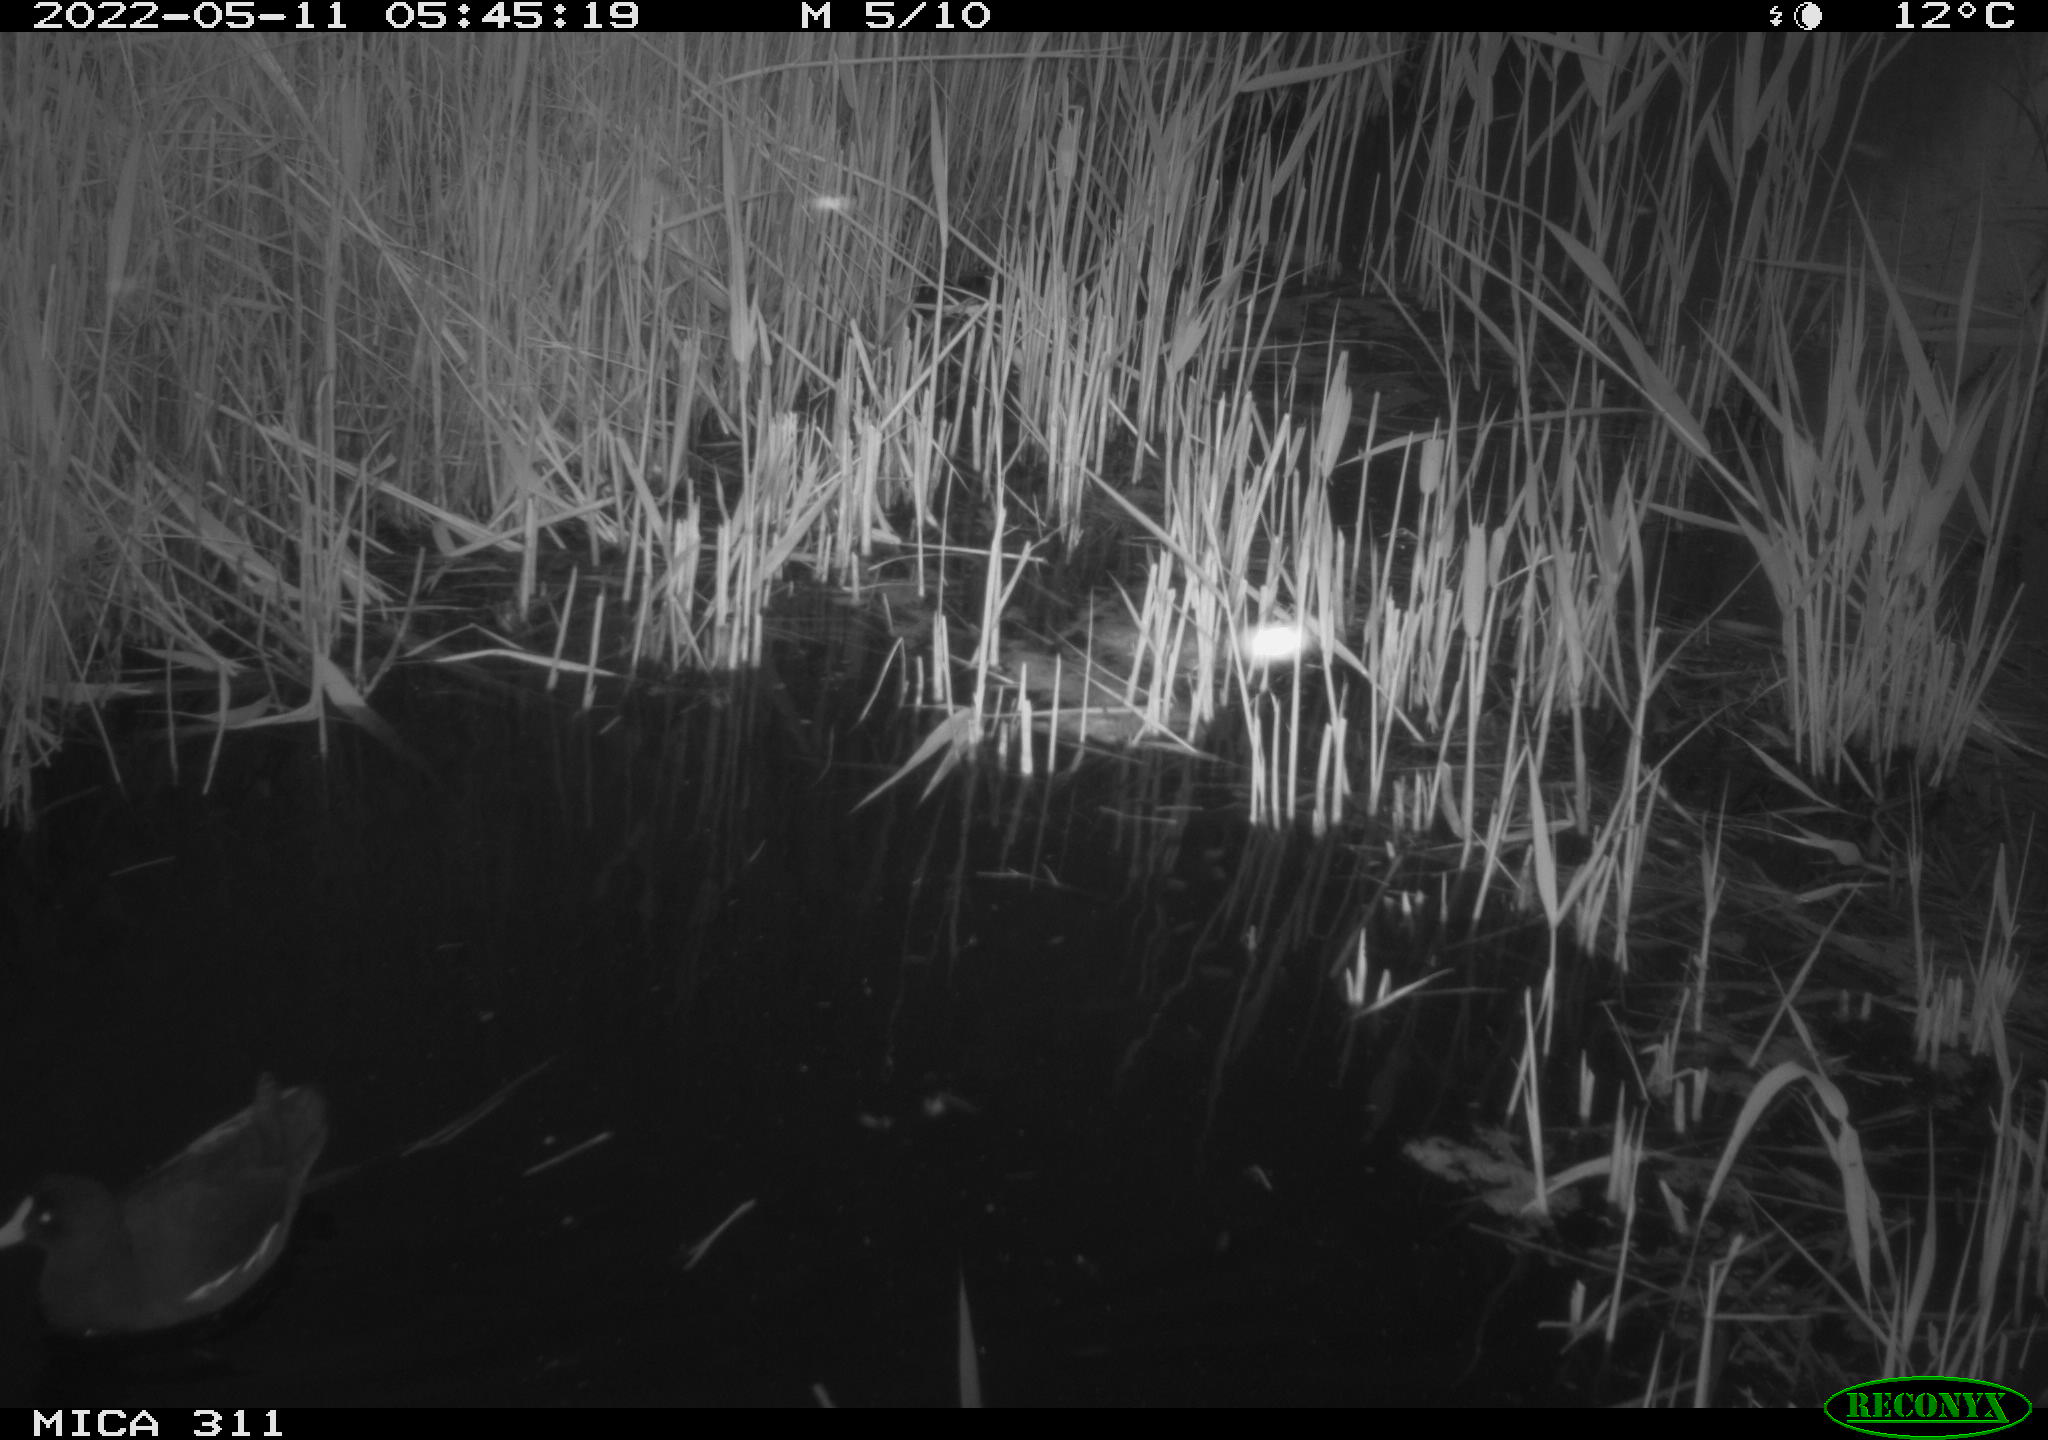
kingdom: Animalia
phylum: Chordata
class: Aves
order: Gruiformes
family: Rallidae
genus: Gallinula
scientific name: Gallinula chloropus
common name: Common moorhen
